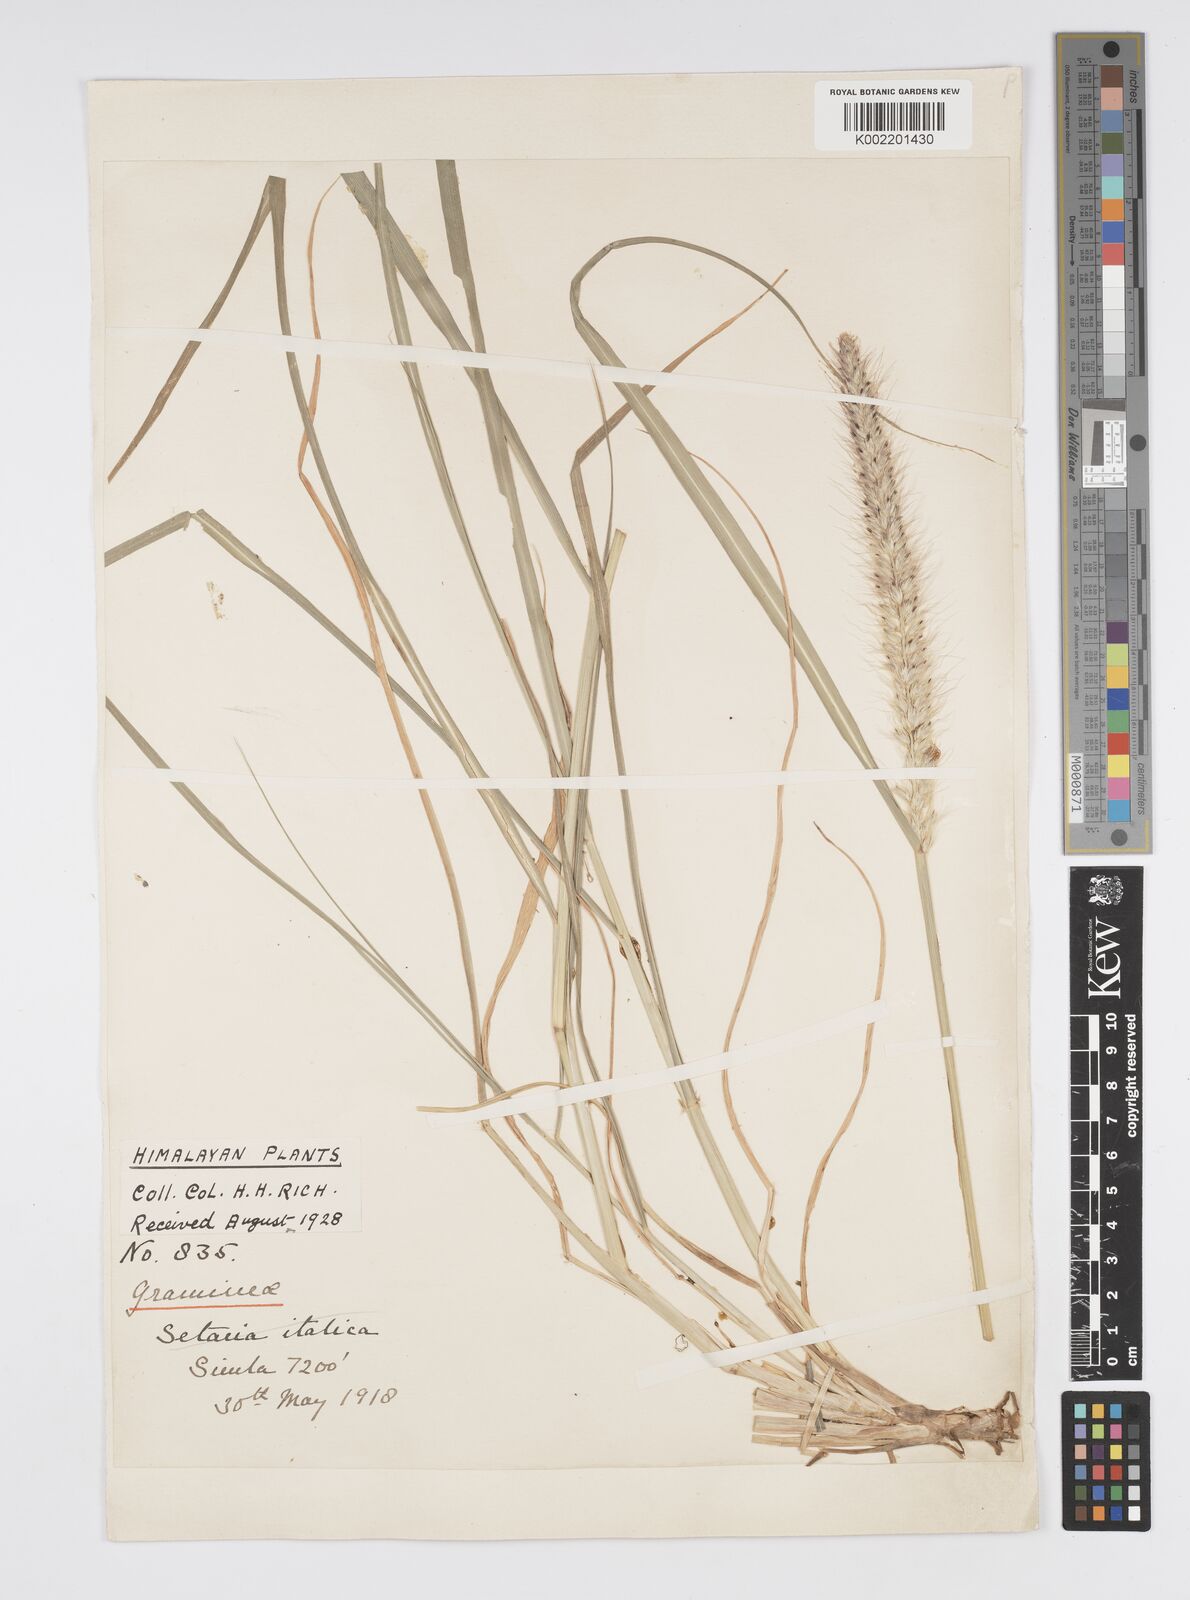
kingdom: Plantae
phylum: Tracheophyta
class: Liliopsida
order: Poales
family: Poaceae
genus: Cenchrus
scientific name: Cenchrus flaccidus
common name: Flaccid grass
